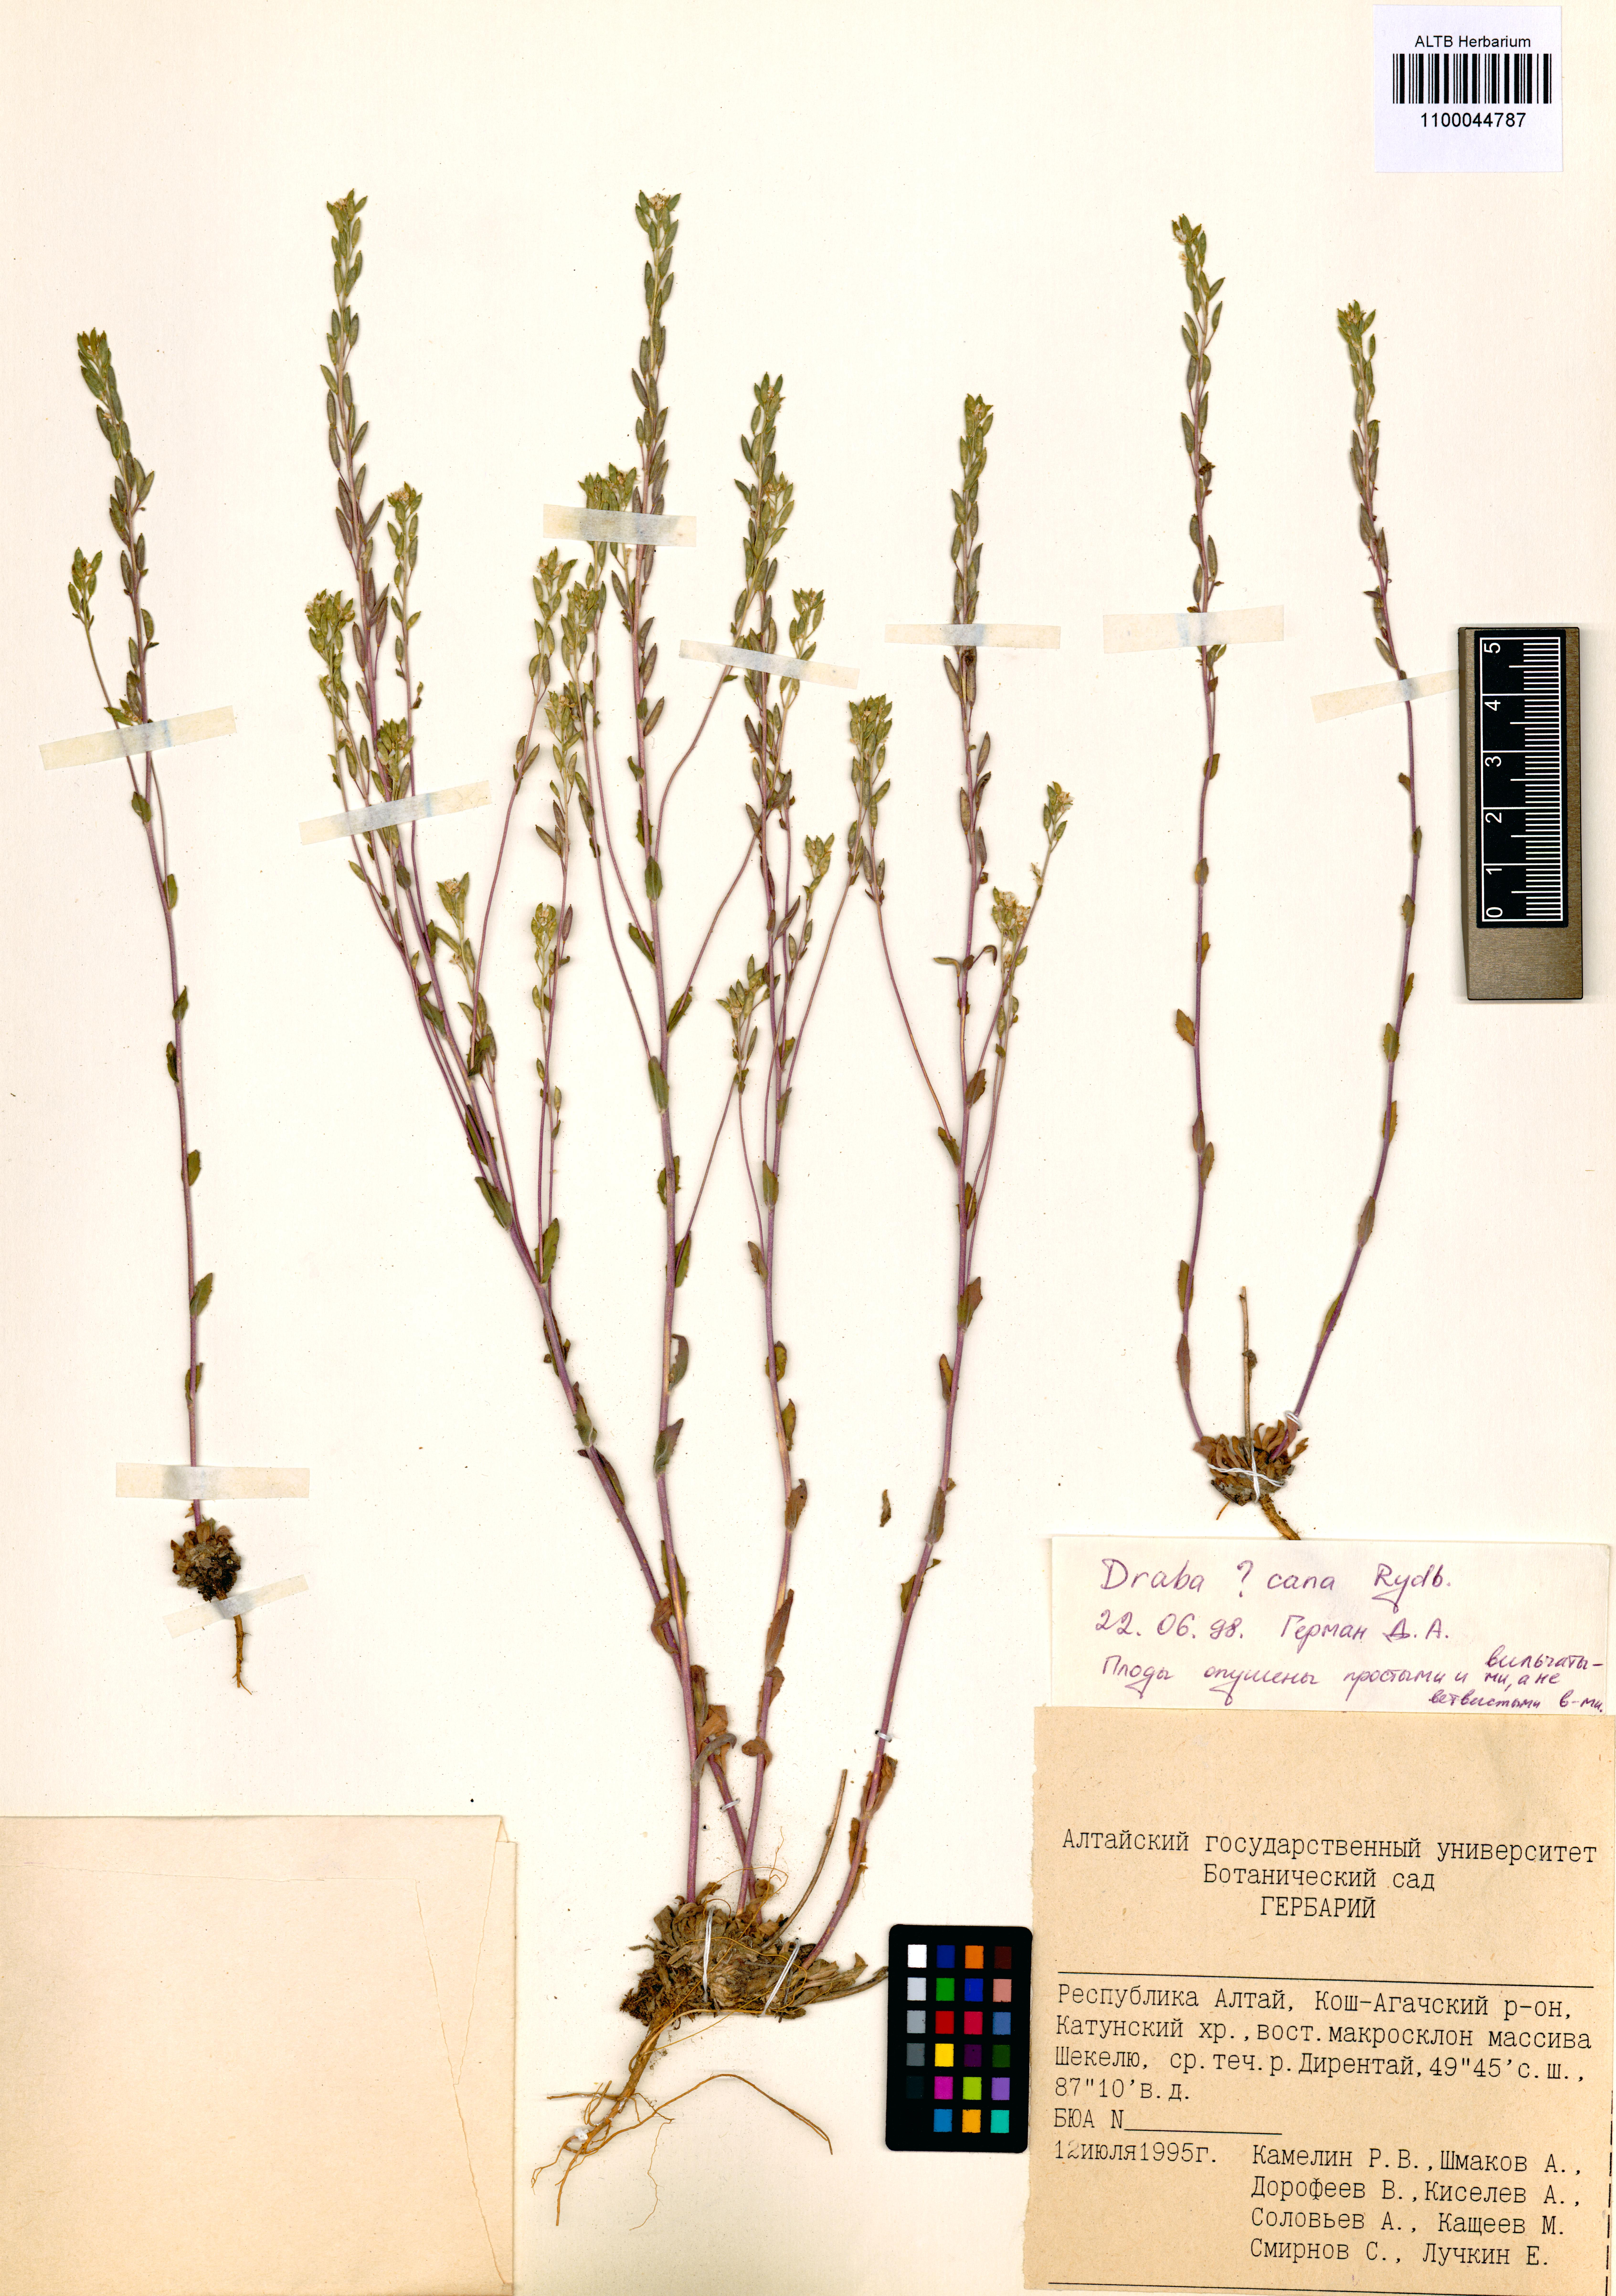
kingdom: Plantae
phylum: Tracheophyta
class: Magnoliopsida
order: Brassicales
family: Brassicaceae
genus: Draba
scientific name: Draba cana
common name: Hoary draba
